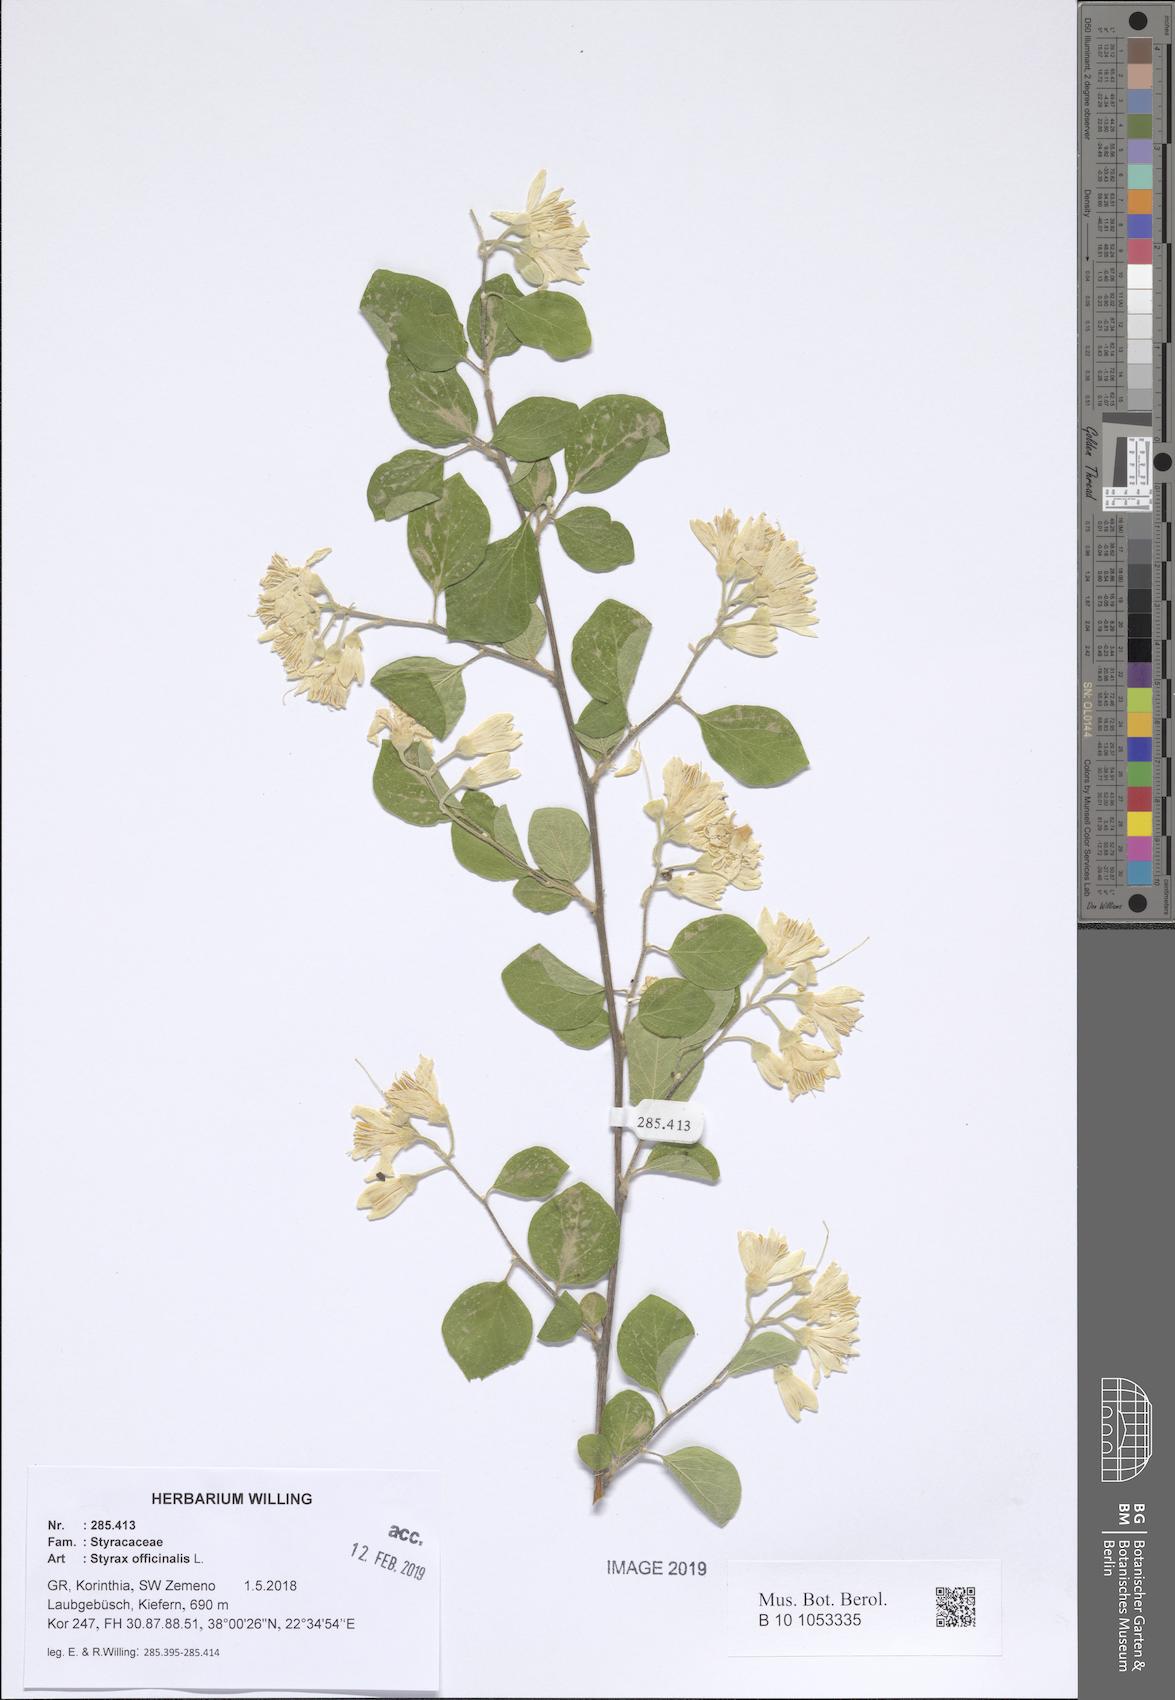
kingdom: Plantae
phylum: Tracheophyta
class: Magnoliopsida
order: Ericales
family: Styracaceae
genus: Styrax
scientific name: Styrax officinalis
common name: Storax
